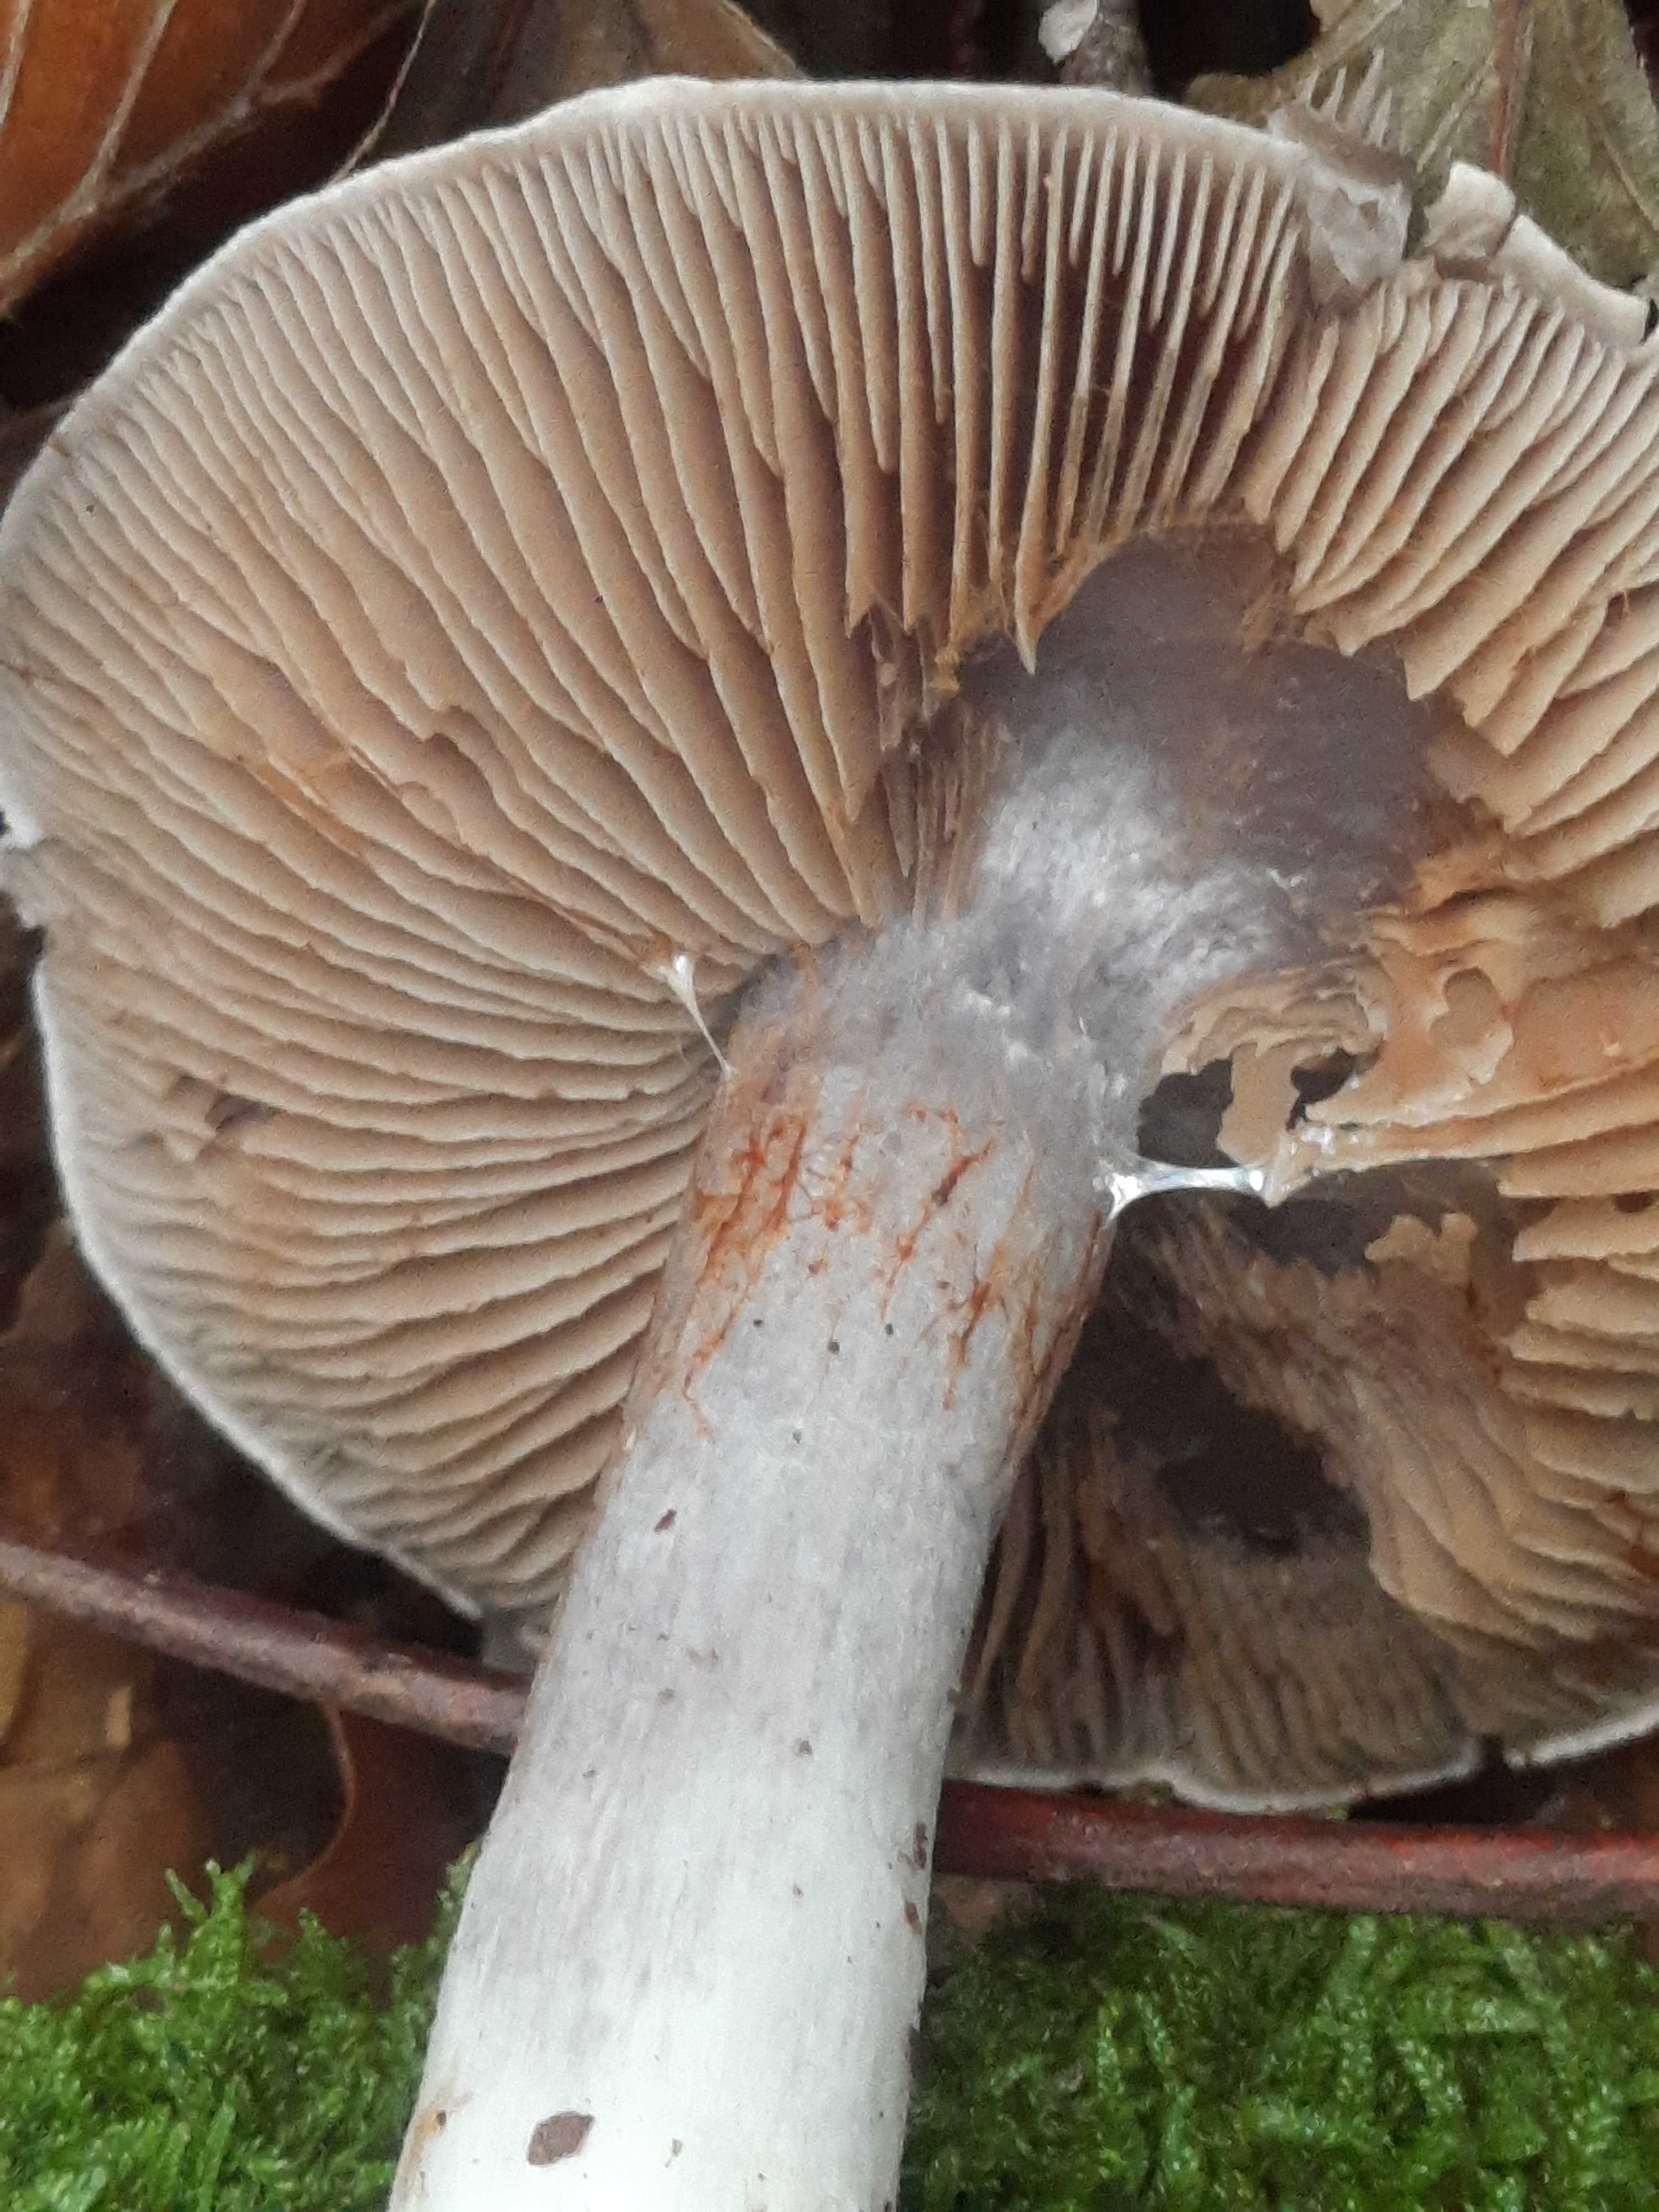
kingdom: Fungi
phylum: Basidiomycota
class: Agaricomycetes
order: Agaricales
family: Cortinariaceae
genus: Cortinarius
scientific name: Cortinarius
